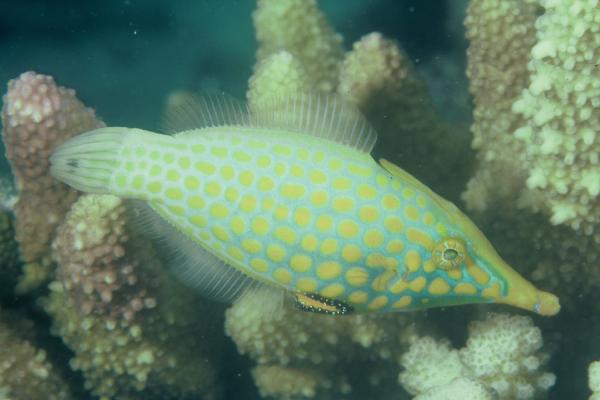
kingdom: Animalia
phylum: Chordata
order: Tetraodontiformes
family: Monacanthidae
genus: Oxymonacanthus
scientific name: Oxymonacanthus longirostris
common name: Beaked leatherjacket
